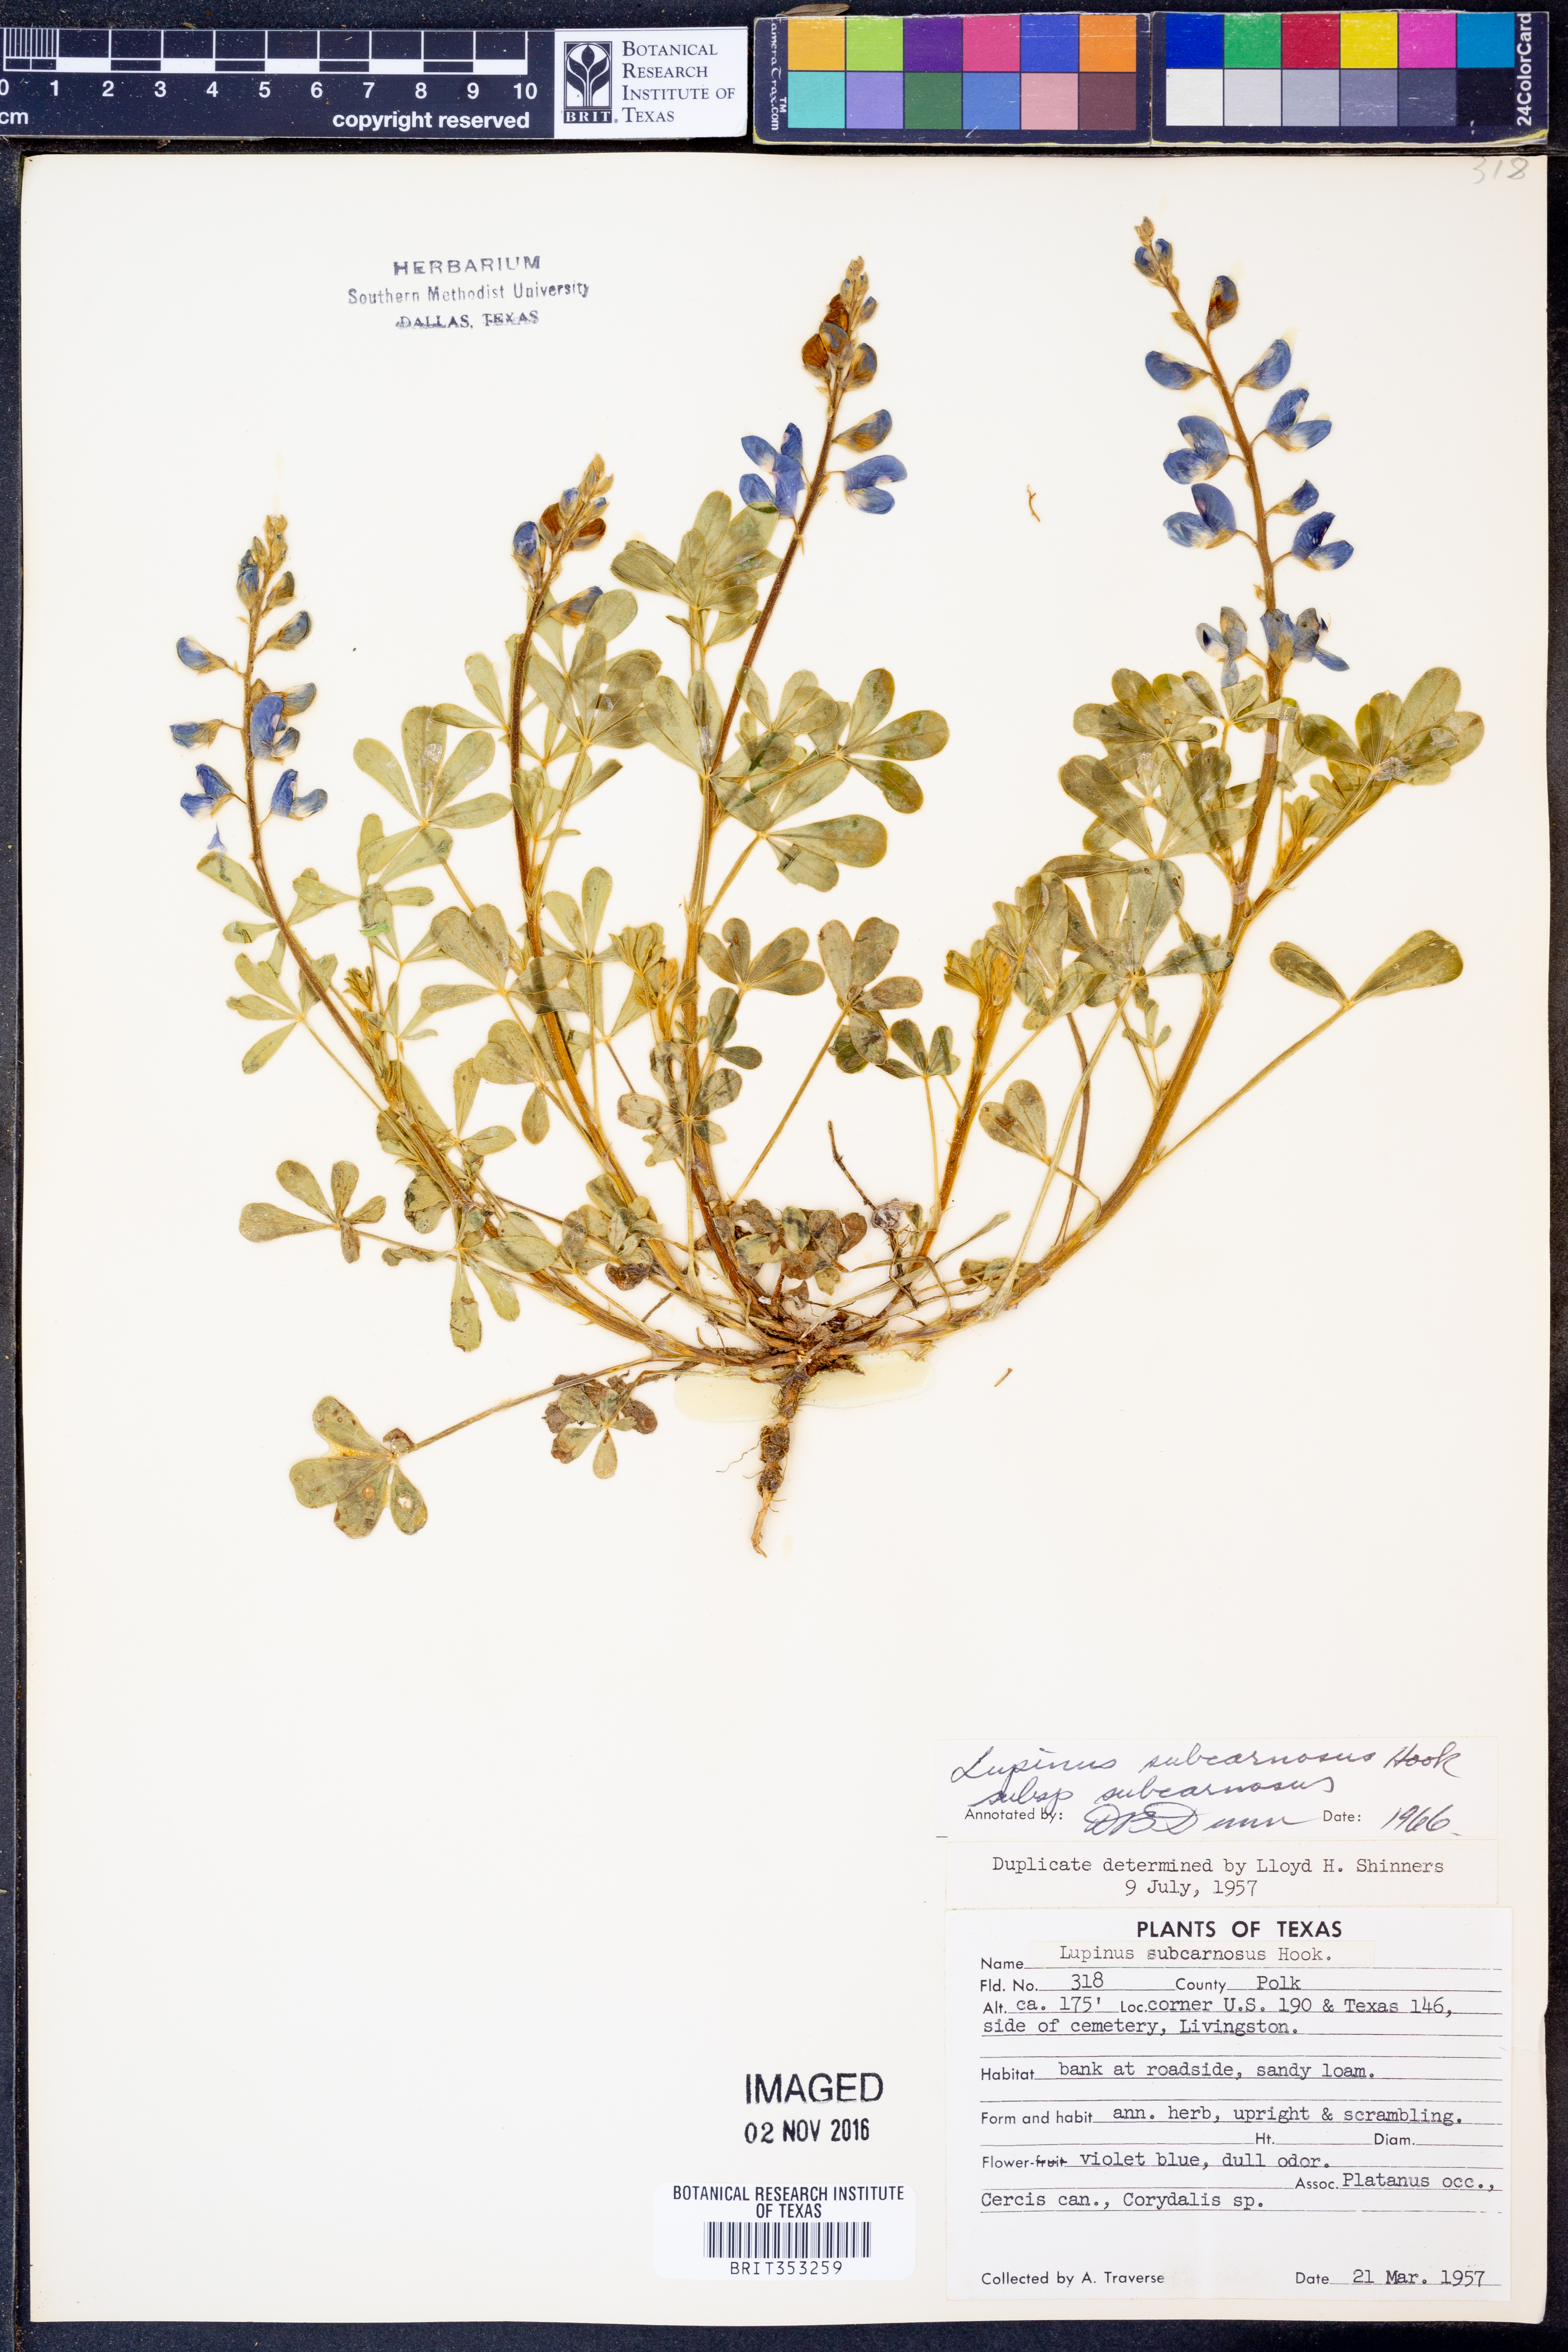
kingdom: Plantae
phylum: Tracheophyta
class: Magnoliopsida
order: Fabales
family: Fabaceae
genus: Lupinus
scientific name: Lupinus subcarnosus
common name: Texas bluebonnet
